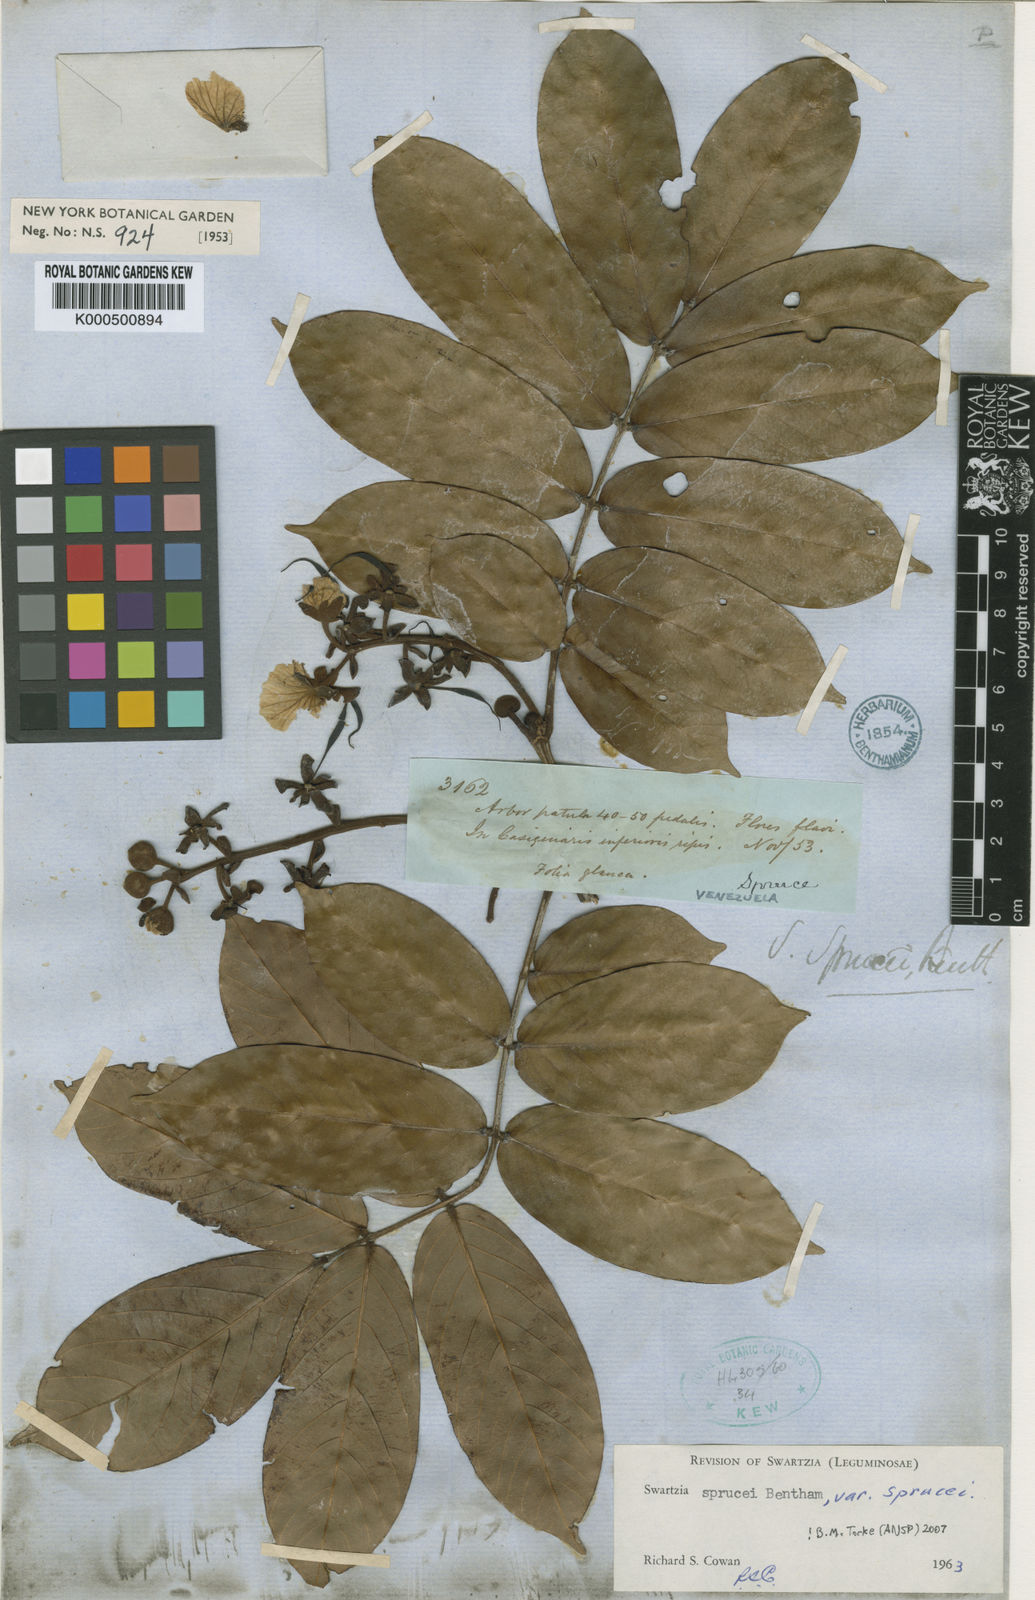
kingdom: Plantae
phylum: Tracheophyta
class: Magnoliopsida
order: Fabales
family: Fabaceae
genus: Swartzia
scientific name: Swartzia sprucei
